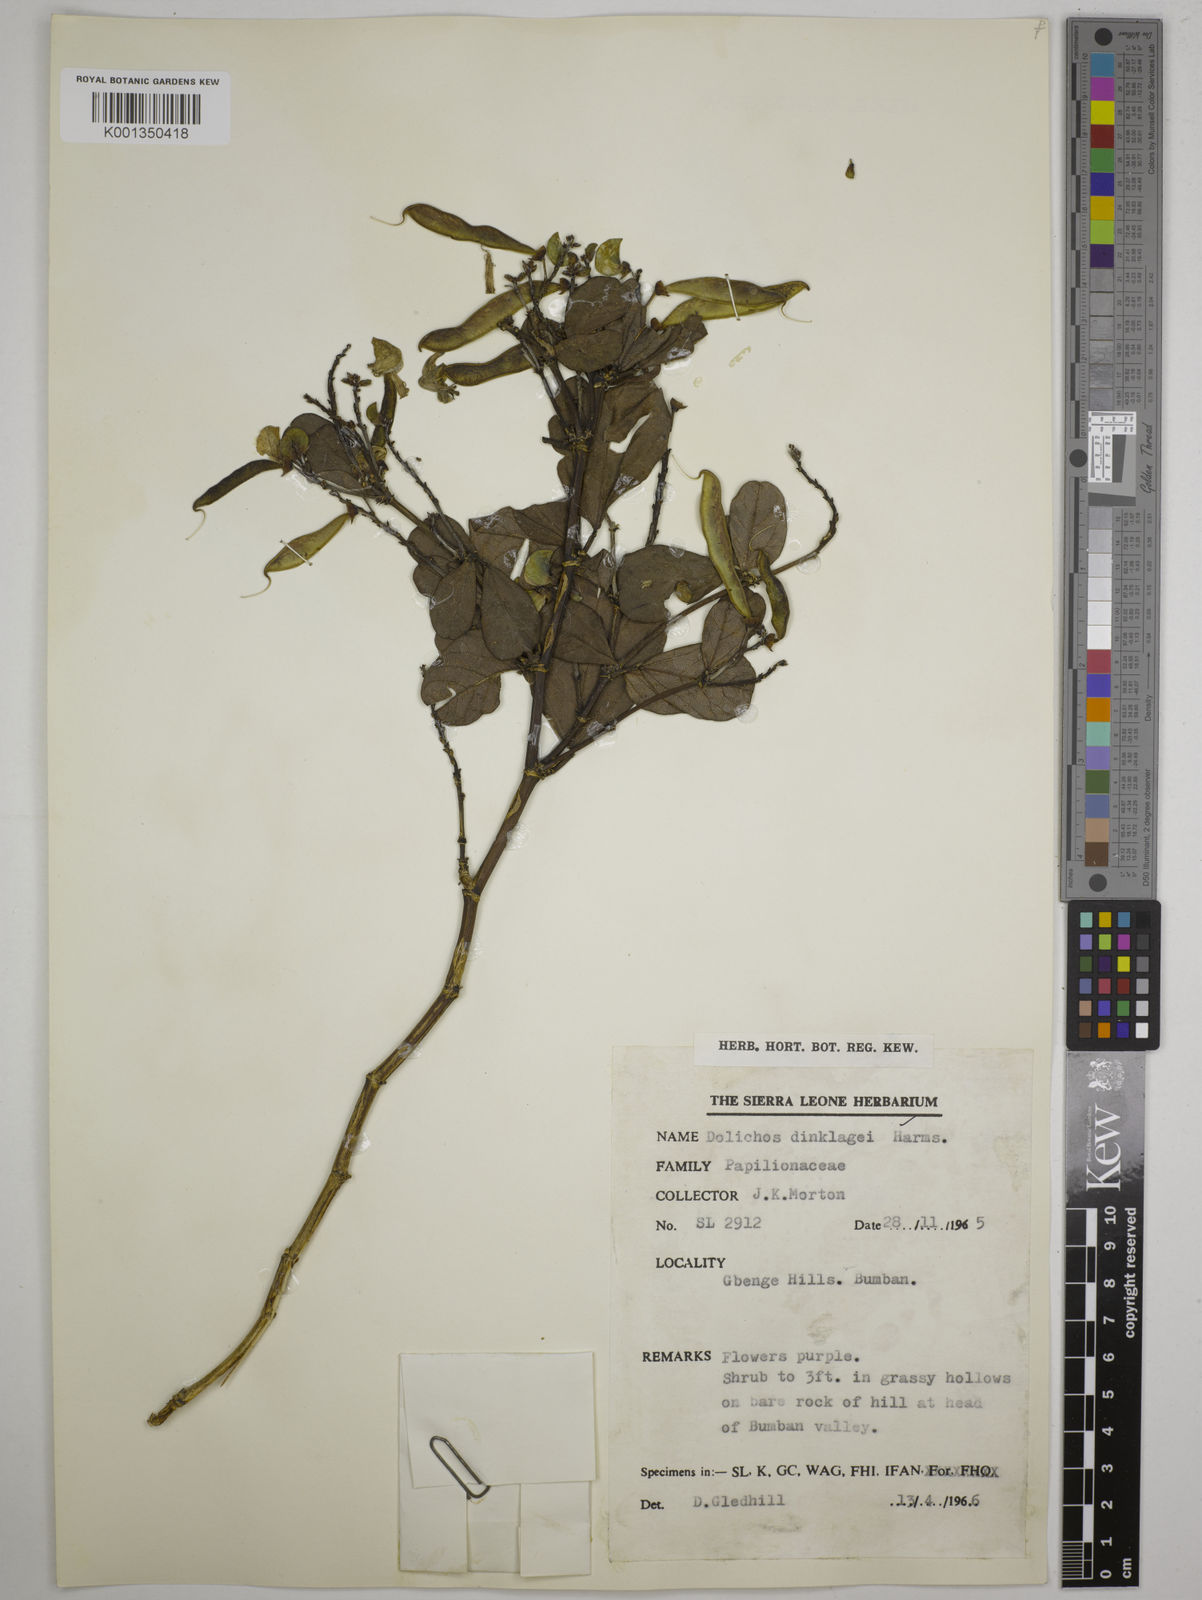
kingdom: Plantae
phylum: Tracheophyta
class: Magnoliopsida
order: Fabales
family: Fabaceae
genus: Dolichos
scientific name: Dolichos dinklagei
